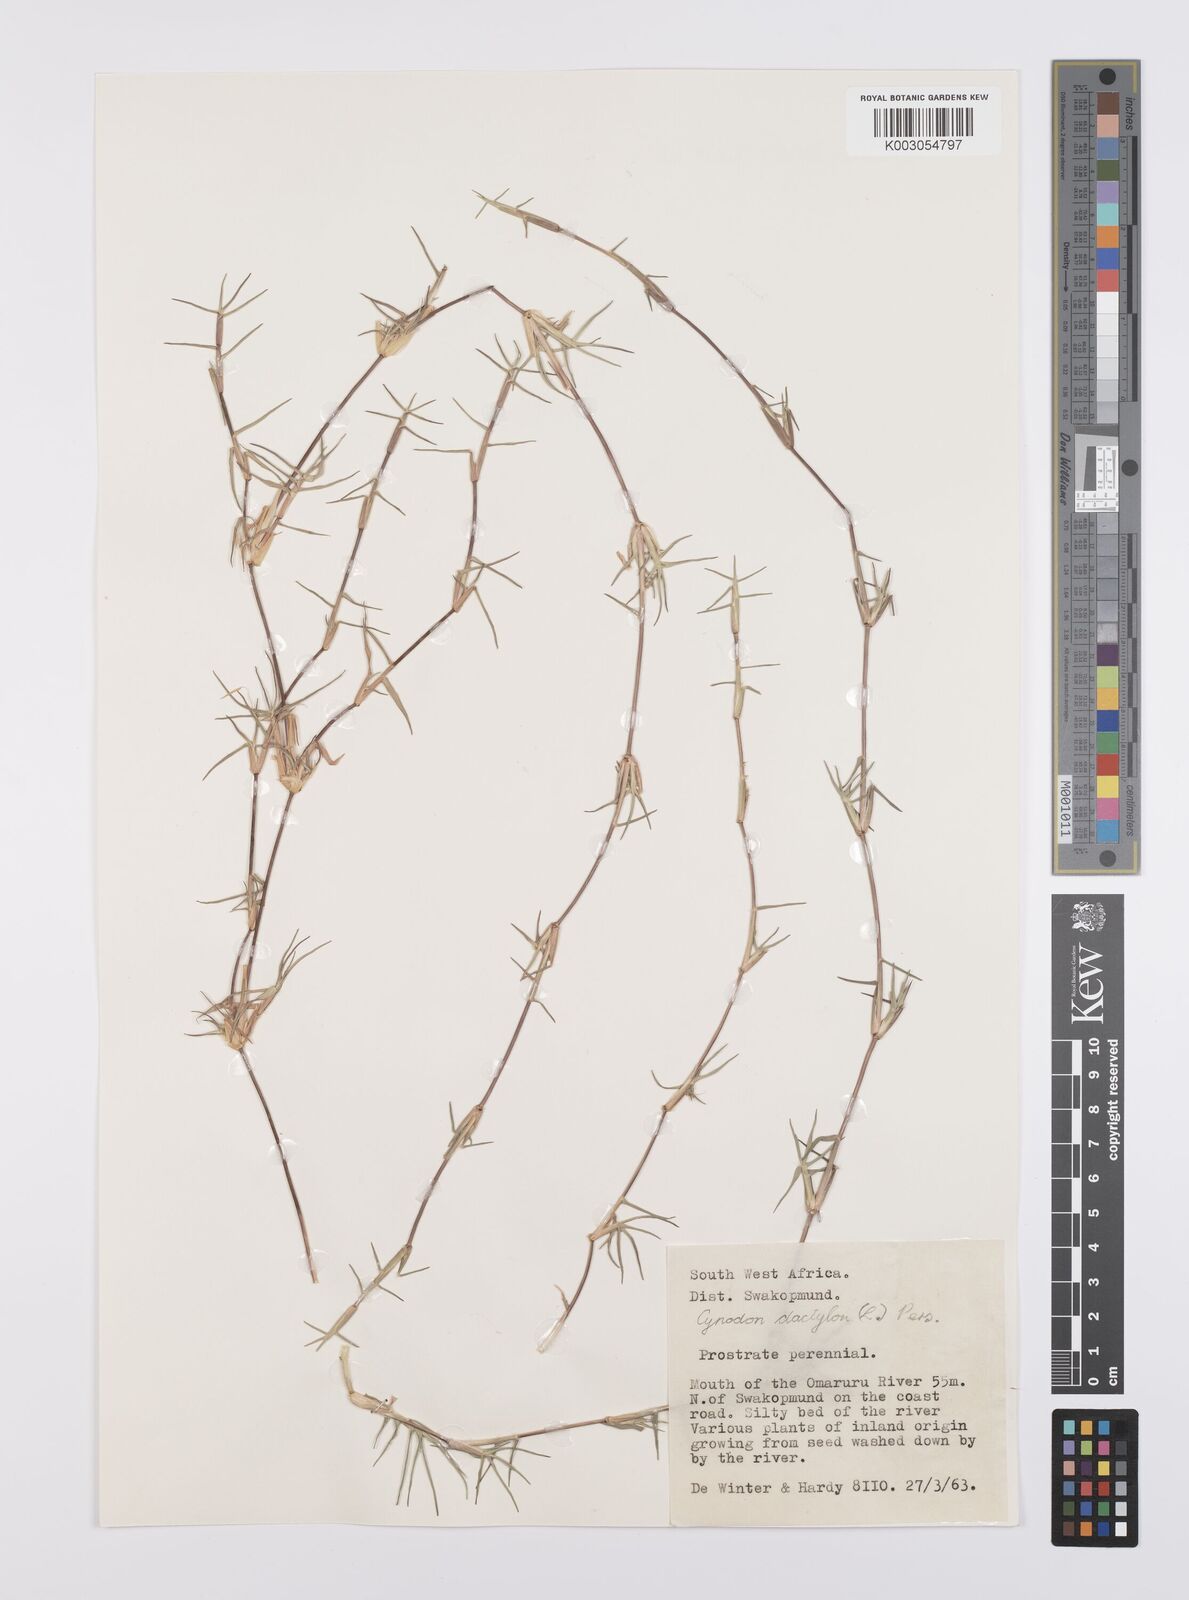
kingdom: Plantae
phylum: Tracheophyta
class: Liliopsida
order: Poales
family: Poaceae
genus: Cynodon
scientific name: Cynodon dactylon
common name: Bermuda grass
